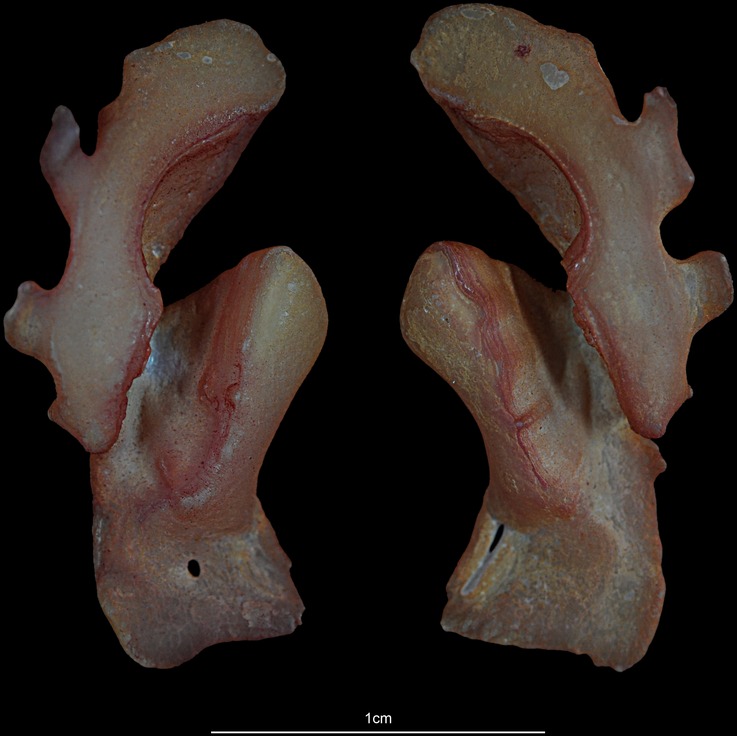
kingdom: Animalia
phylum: Chordata
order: Beryciformes
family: Trachichthyidae
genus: Hoplostethus
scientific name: Hoplostethus atlanticus
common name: Orange roughy
